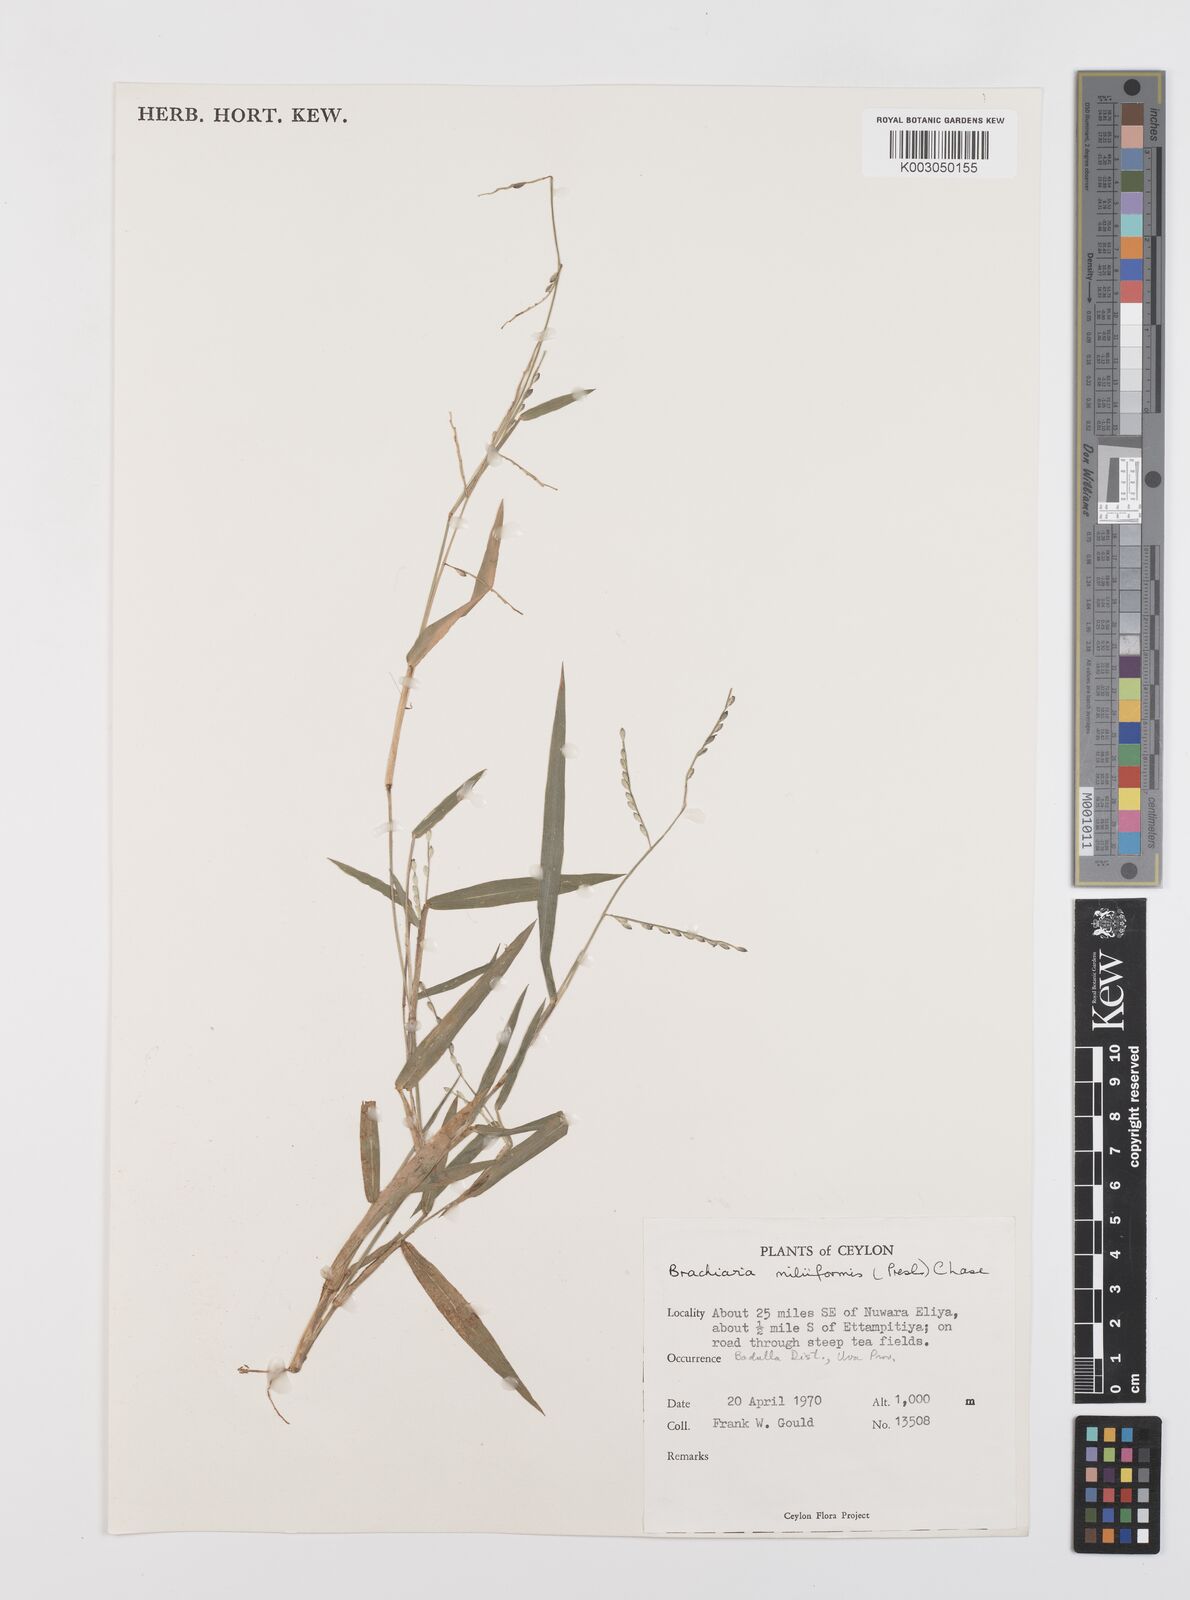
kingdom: Plantae
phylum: Tracheophyta
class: Liliopsida
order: Poales
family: Poaceae
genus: Urochloa
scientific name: Urochloa subquadripara
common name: Armgrass millet
